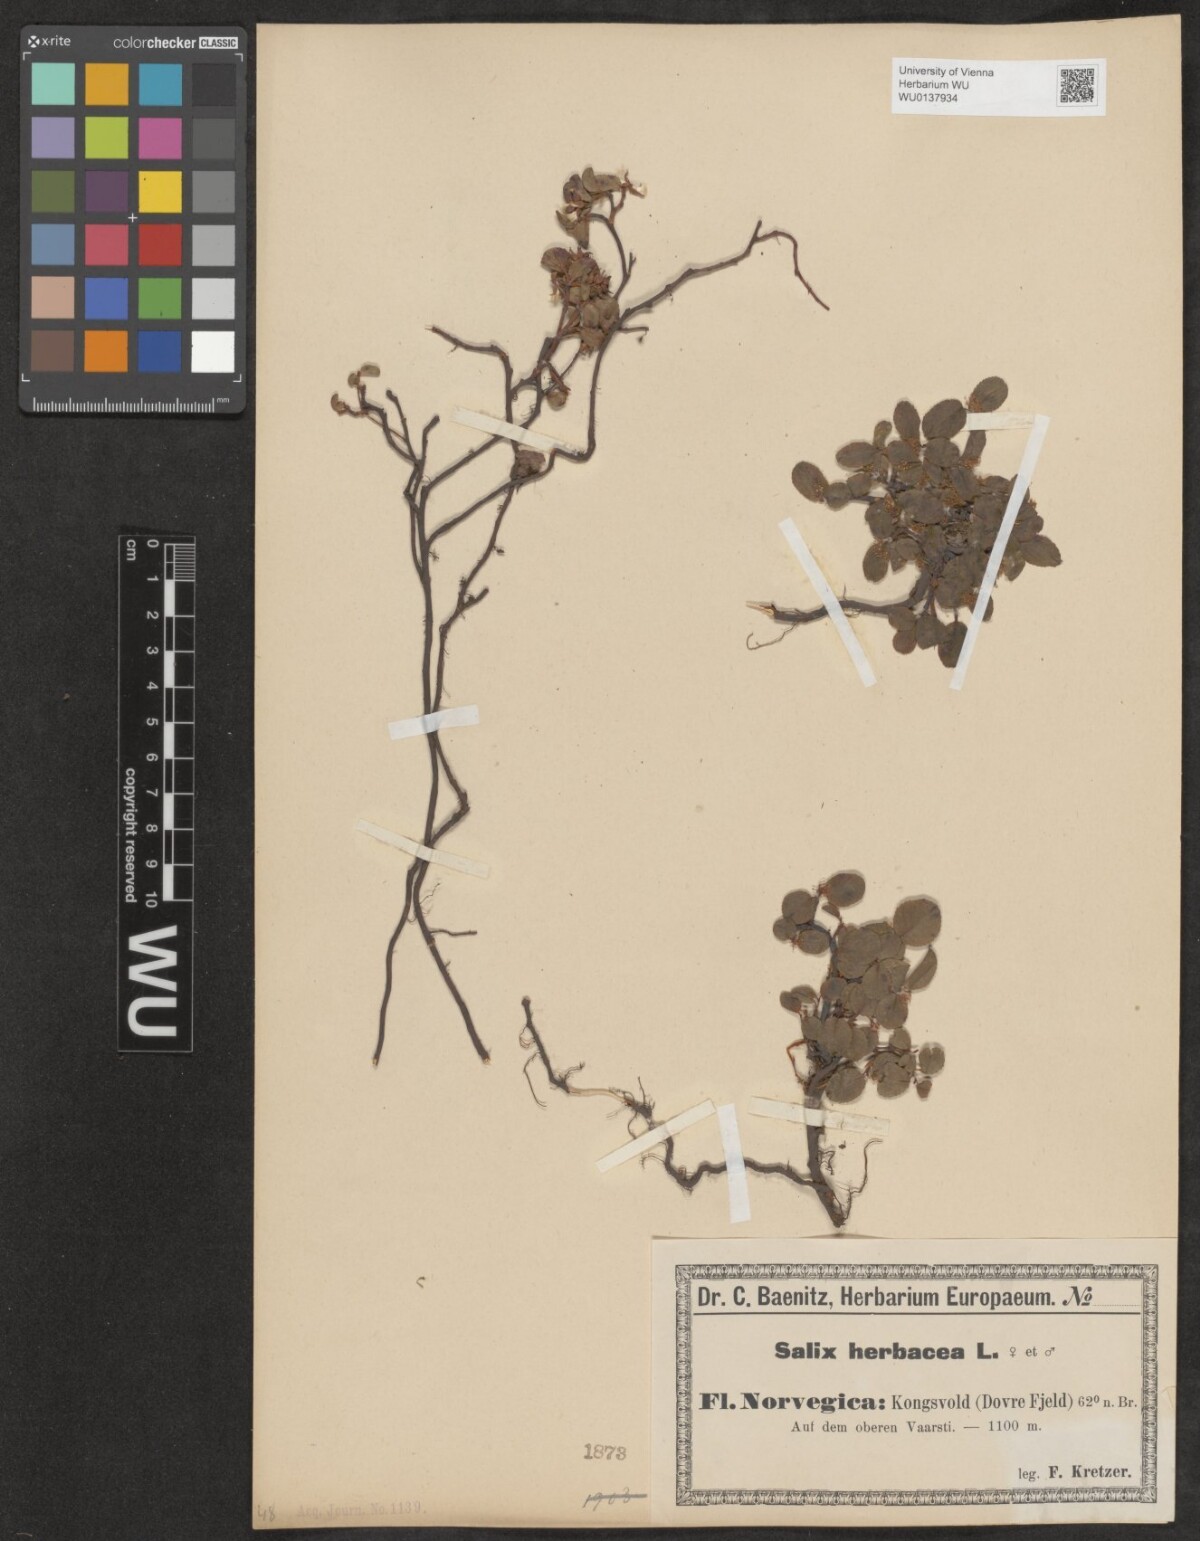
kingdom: Plantae
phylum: Tracheophyta
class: Magnoliopsida
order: Malpighiales
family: Salicaceae
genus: Salix
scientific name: Salix herbacea
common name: Dwarf willow
